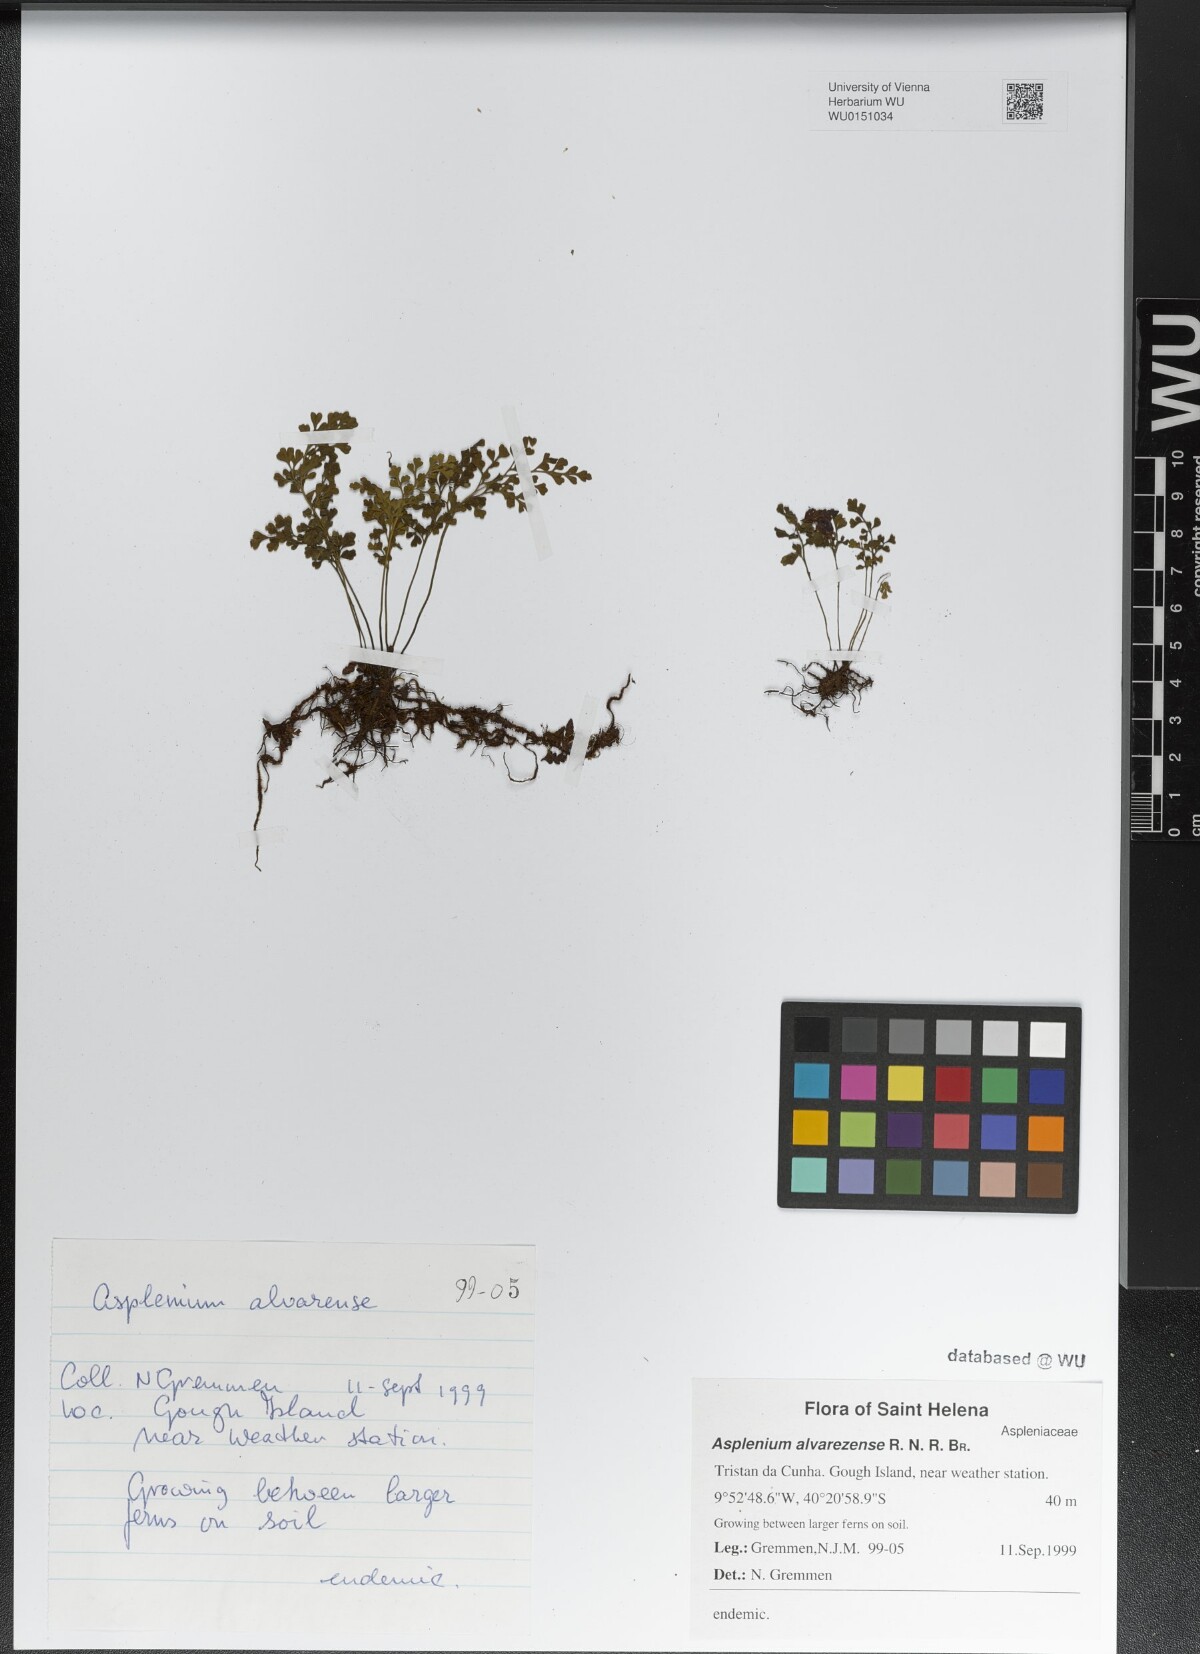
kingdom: Plantae
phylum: Tracheophyta
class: Polypodiopsida
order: Polypodiales
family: Aspleniaceae
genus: Asplenium
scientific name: Asplenium alvarezense
